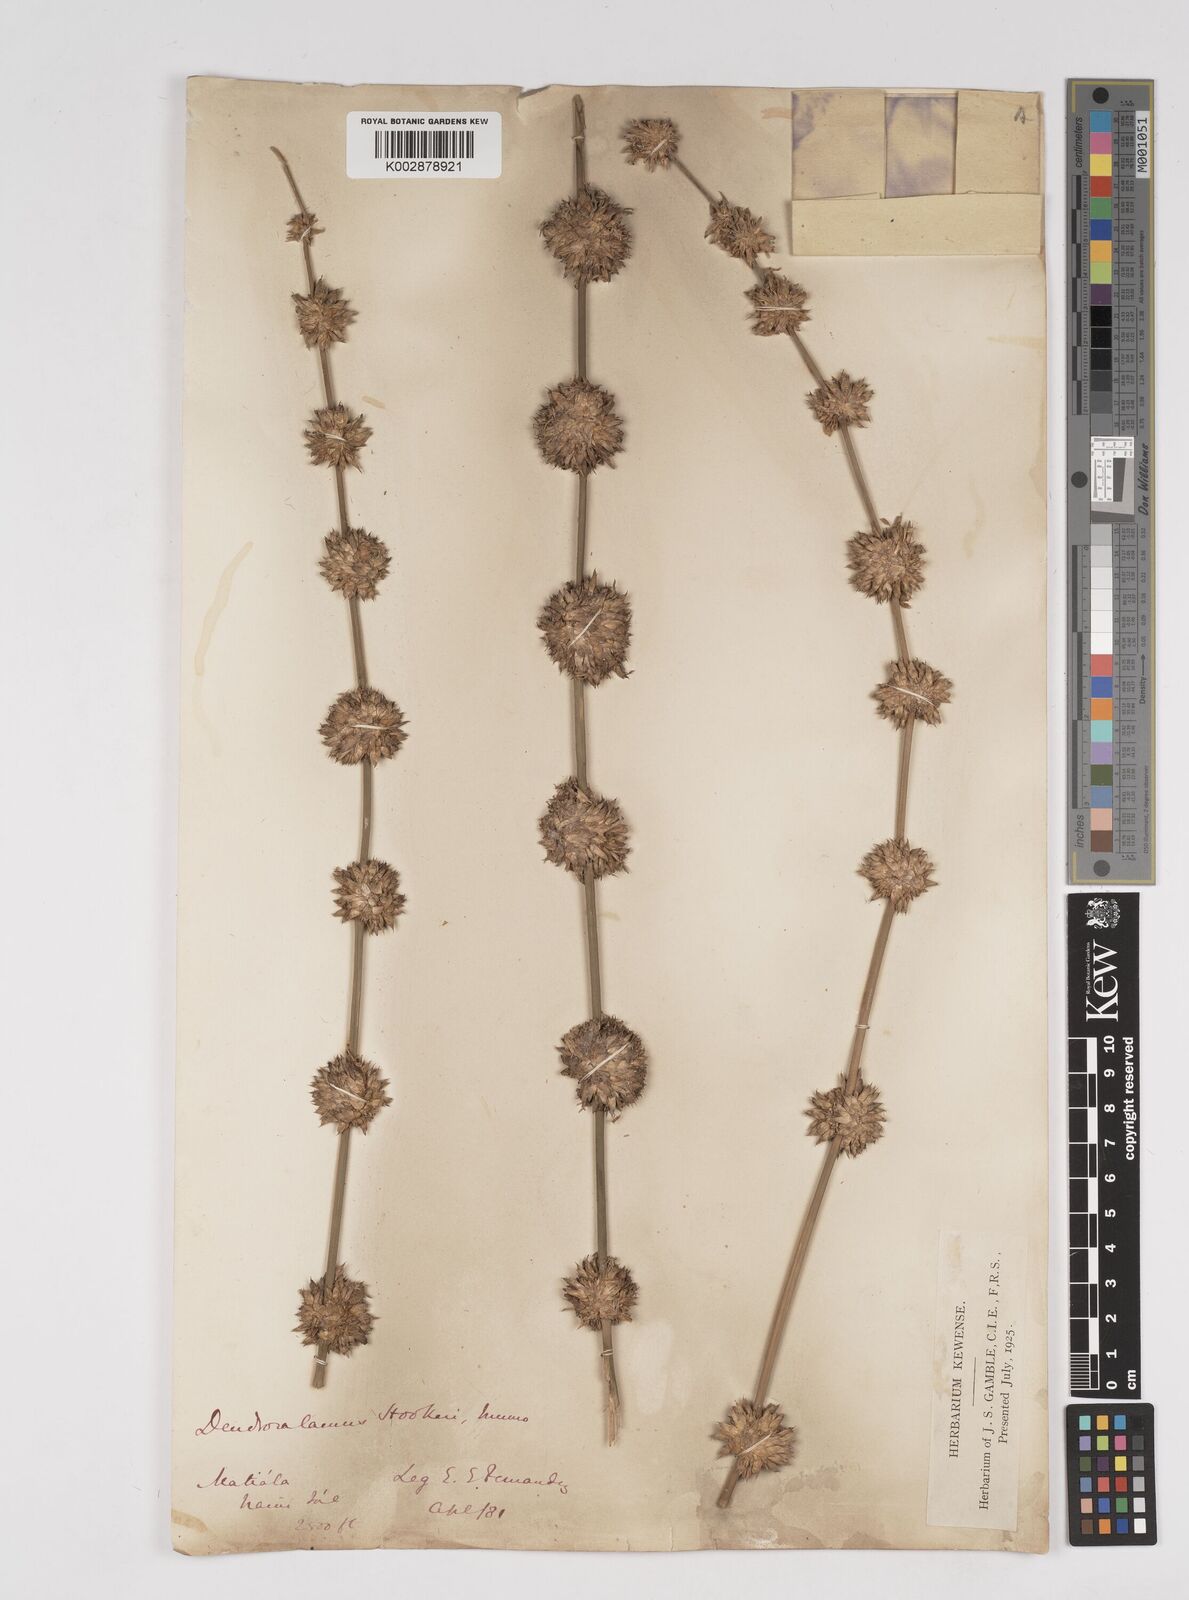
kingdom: Plantae
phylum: Tracheophyta
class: Liliopsida
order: Poales
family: Poaceae
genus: Dendrocalamus
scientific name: Dendrocalamus hookeri
